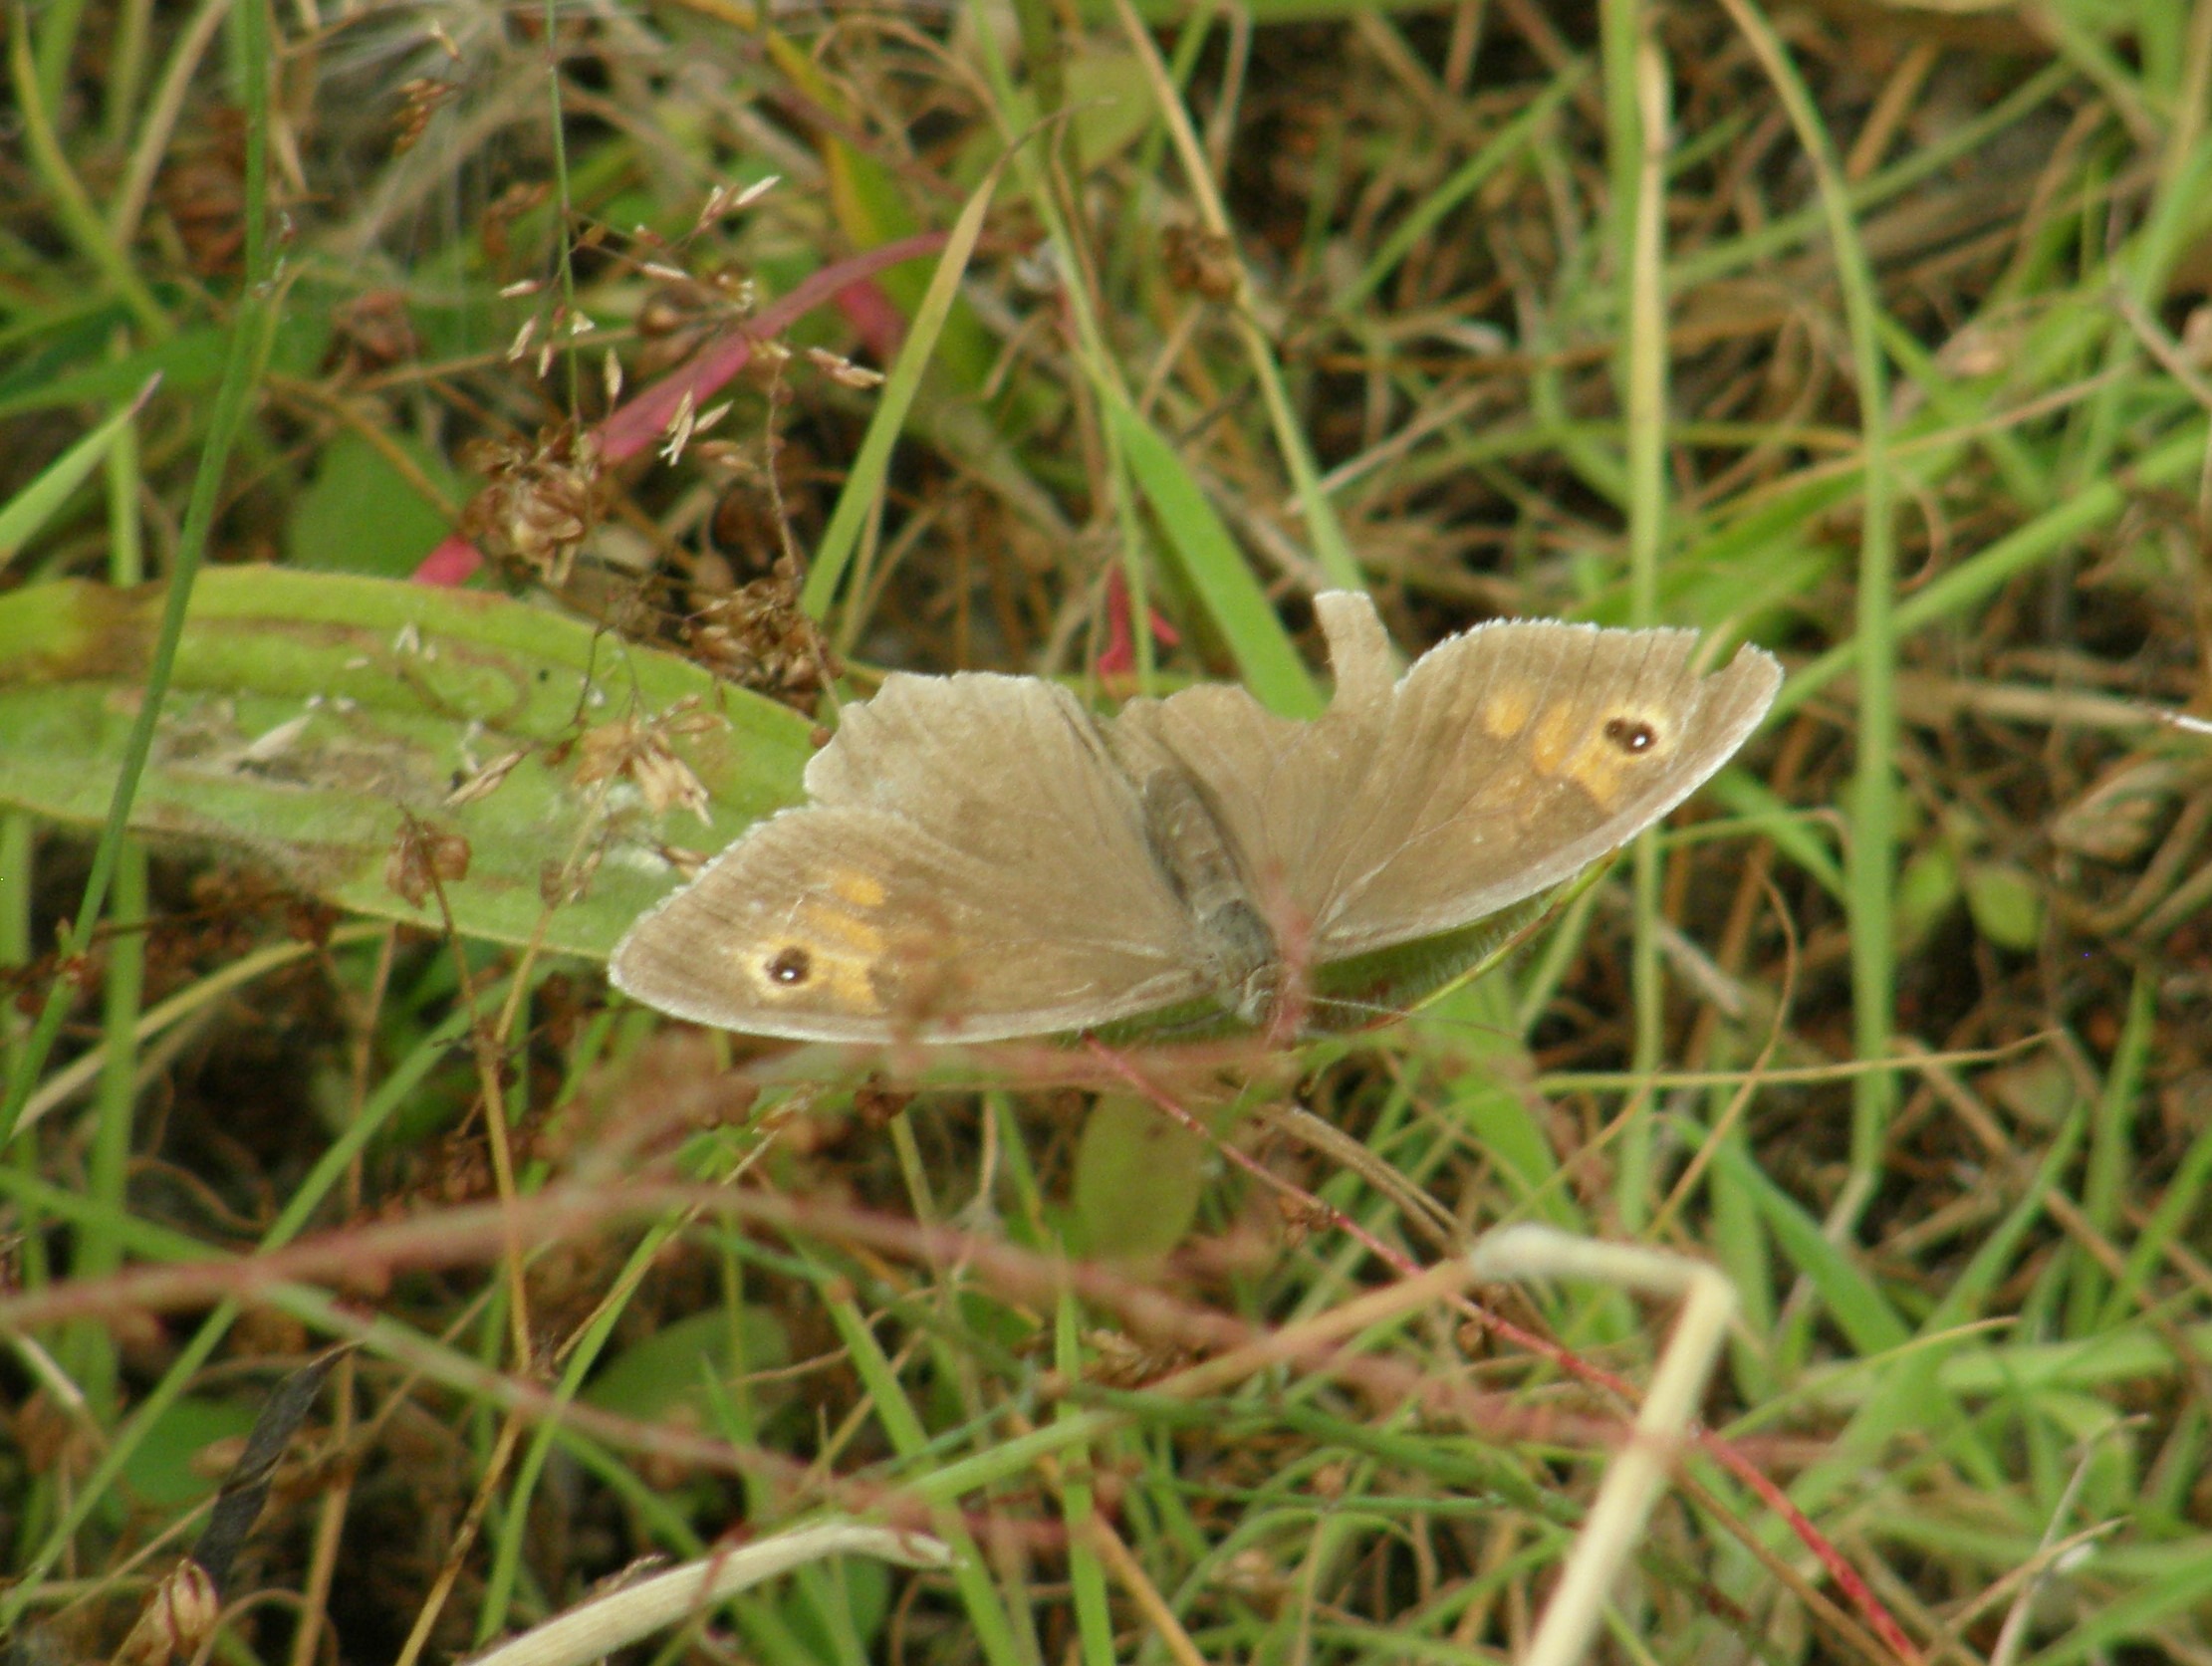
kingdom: Animalia
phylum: Arthropoda
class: Insecta
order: Lepidoptera
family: Nymphalidae
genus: Maniola
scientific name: Maniola jurtina
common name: Græsrandøje
